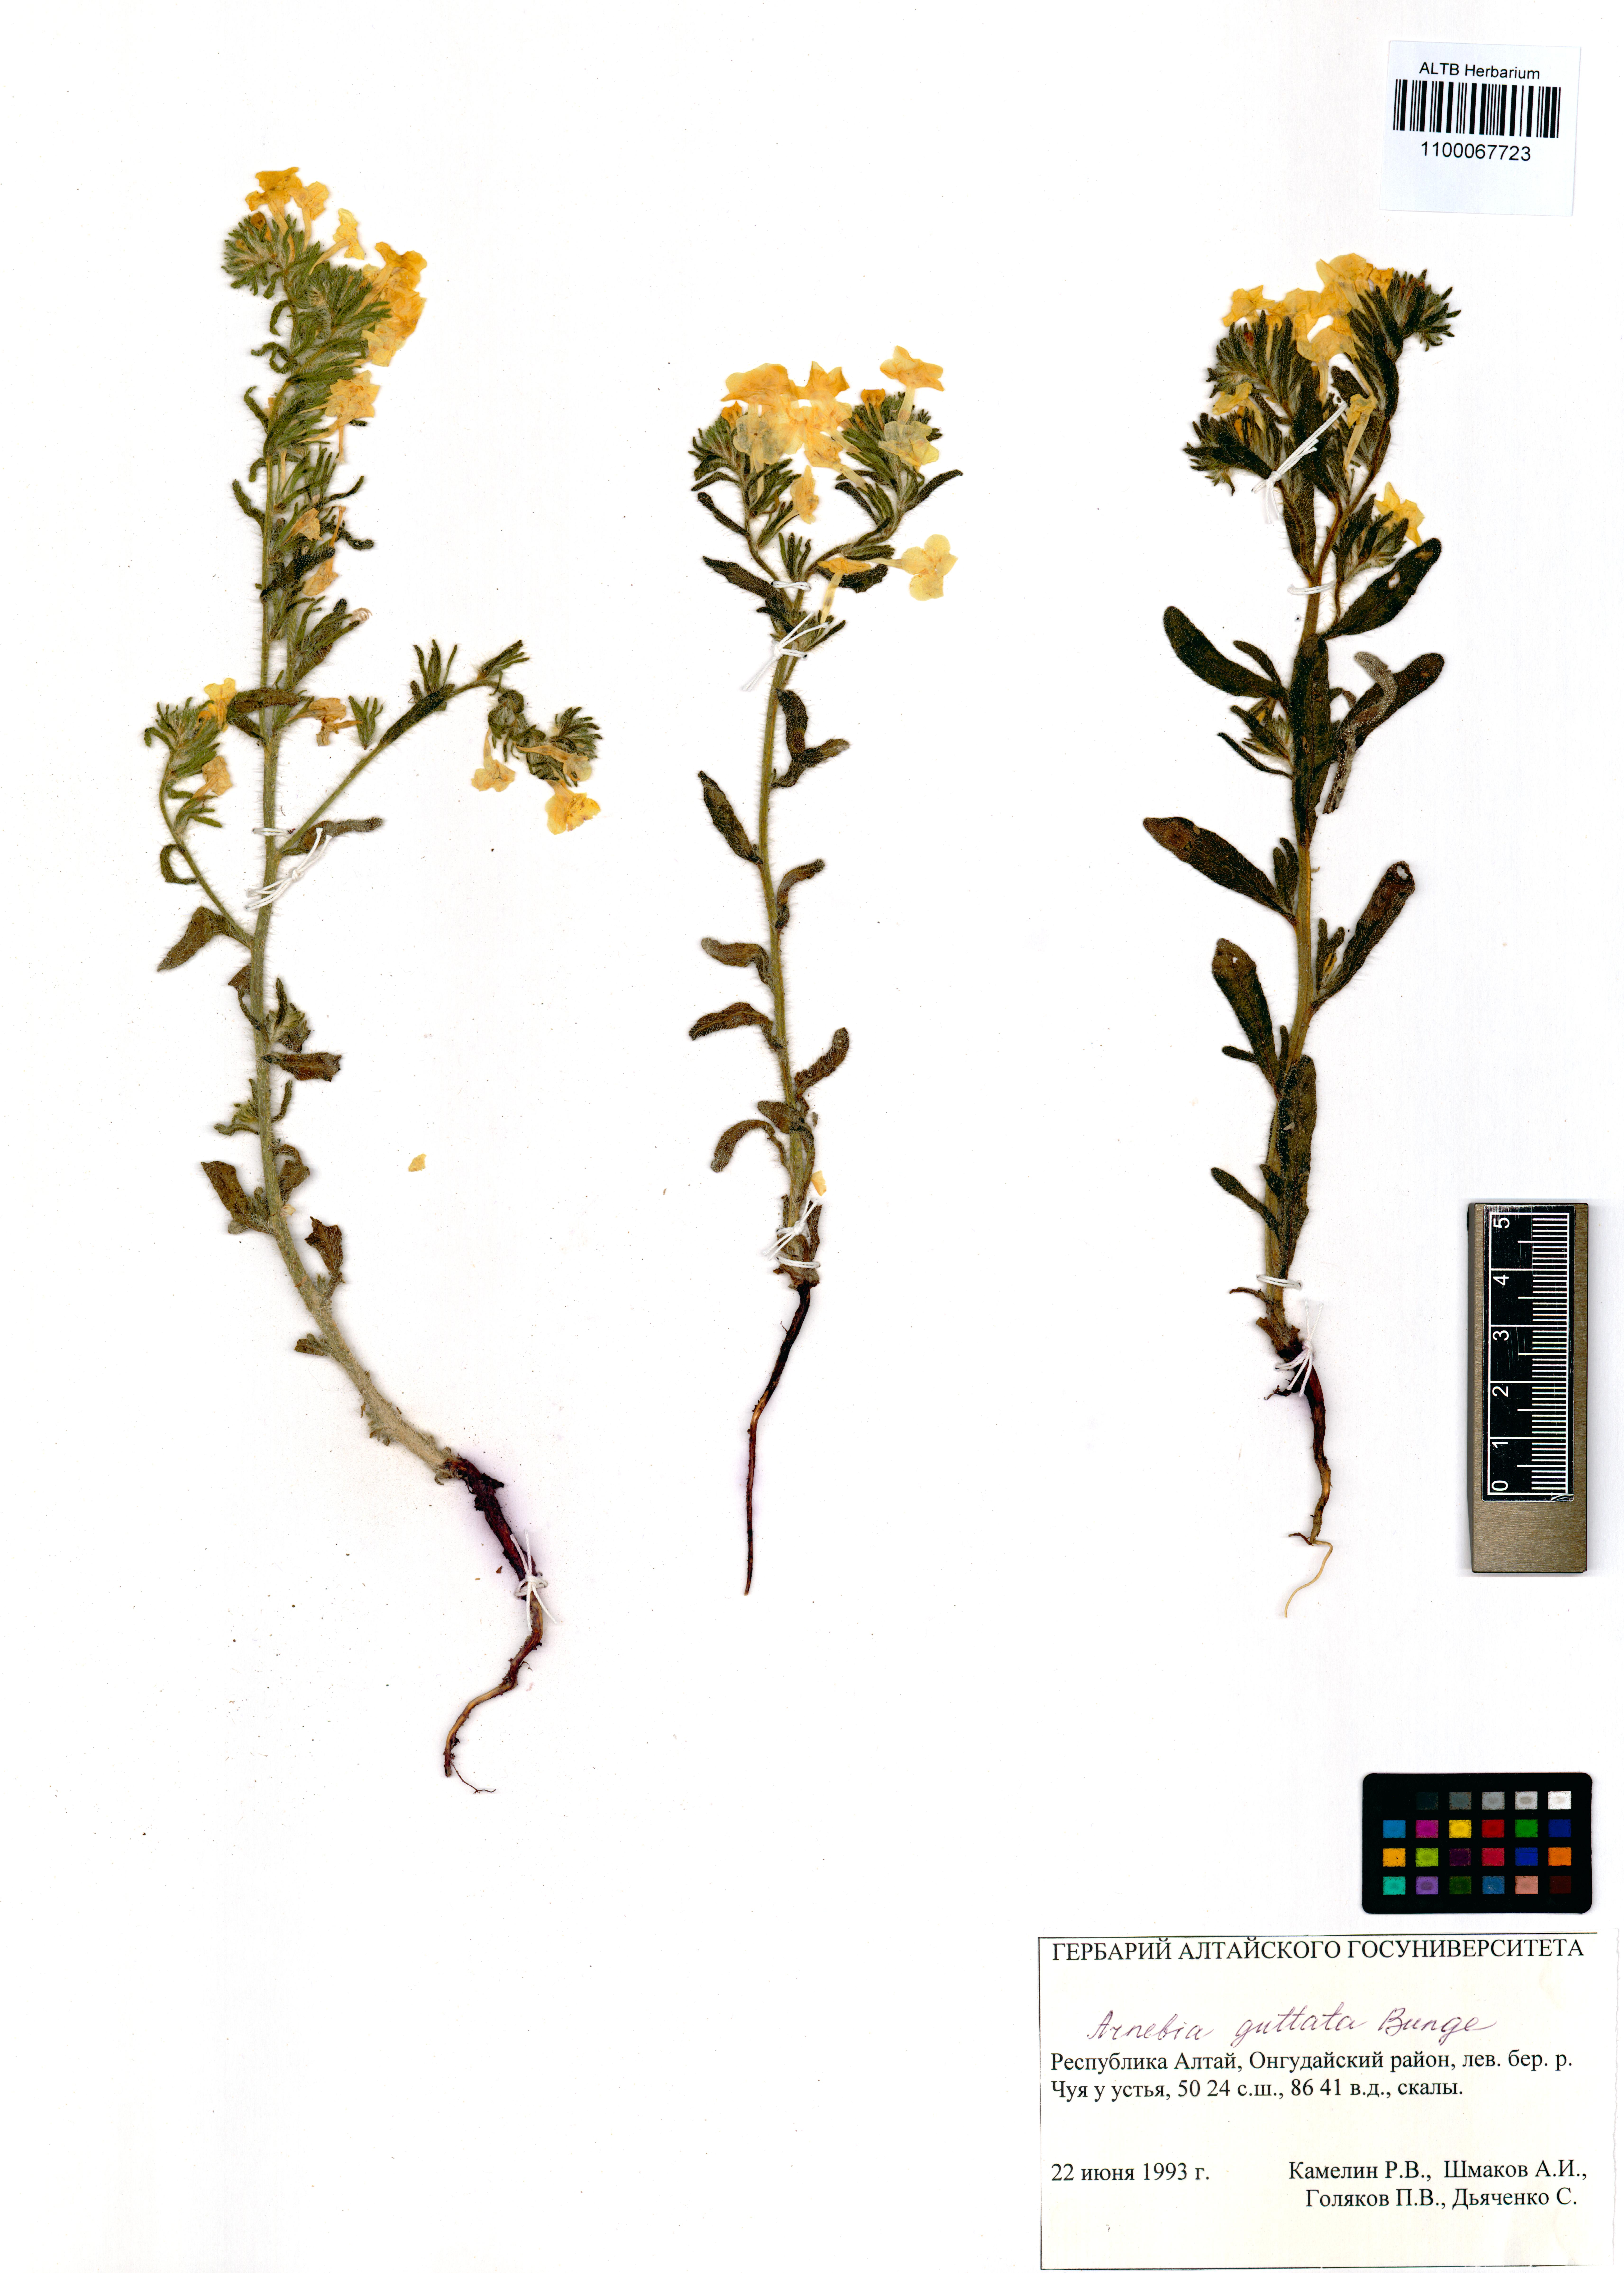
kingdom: Plantae
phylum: Tracheophyta
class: Magnoliopsida
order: Boraginales
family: Boraginaceae
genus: Arnebia
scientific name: Arnebia guttata
